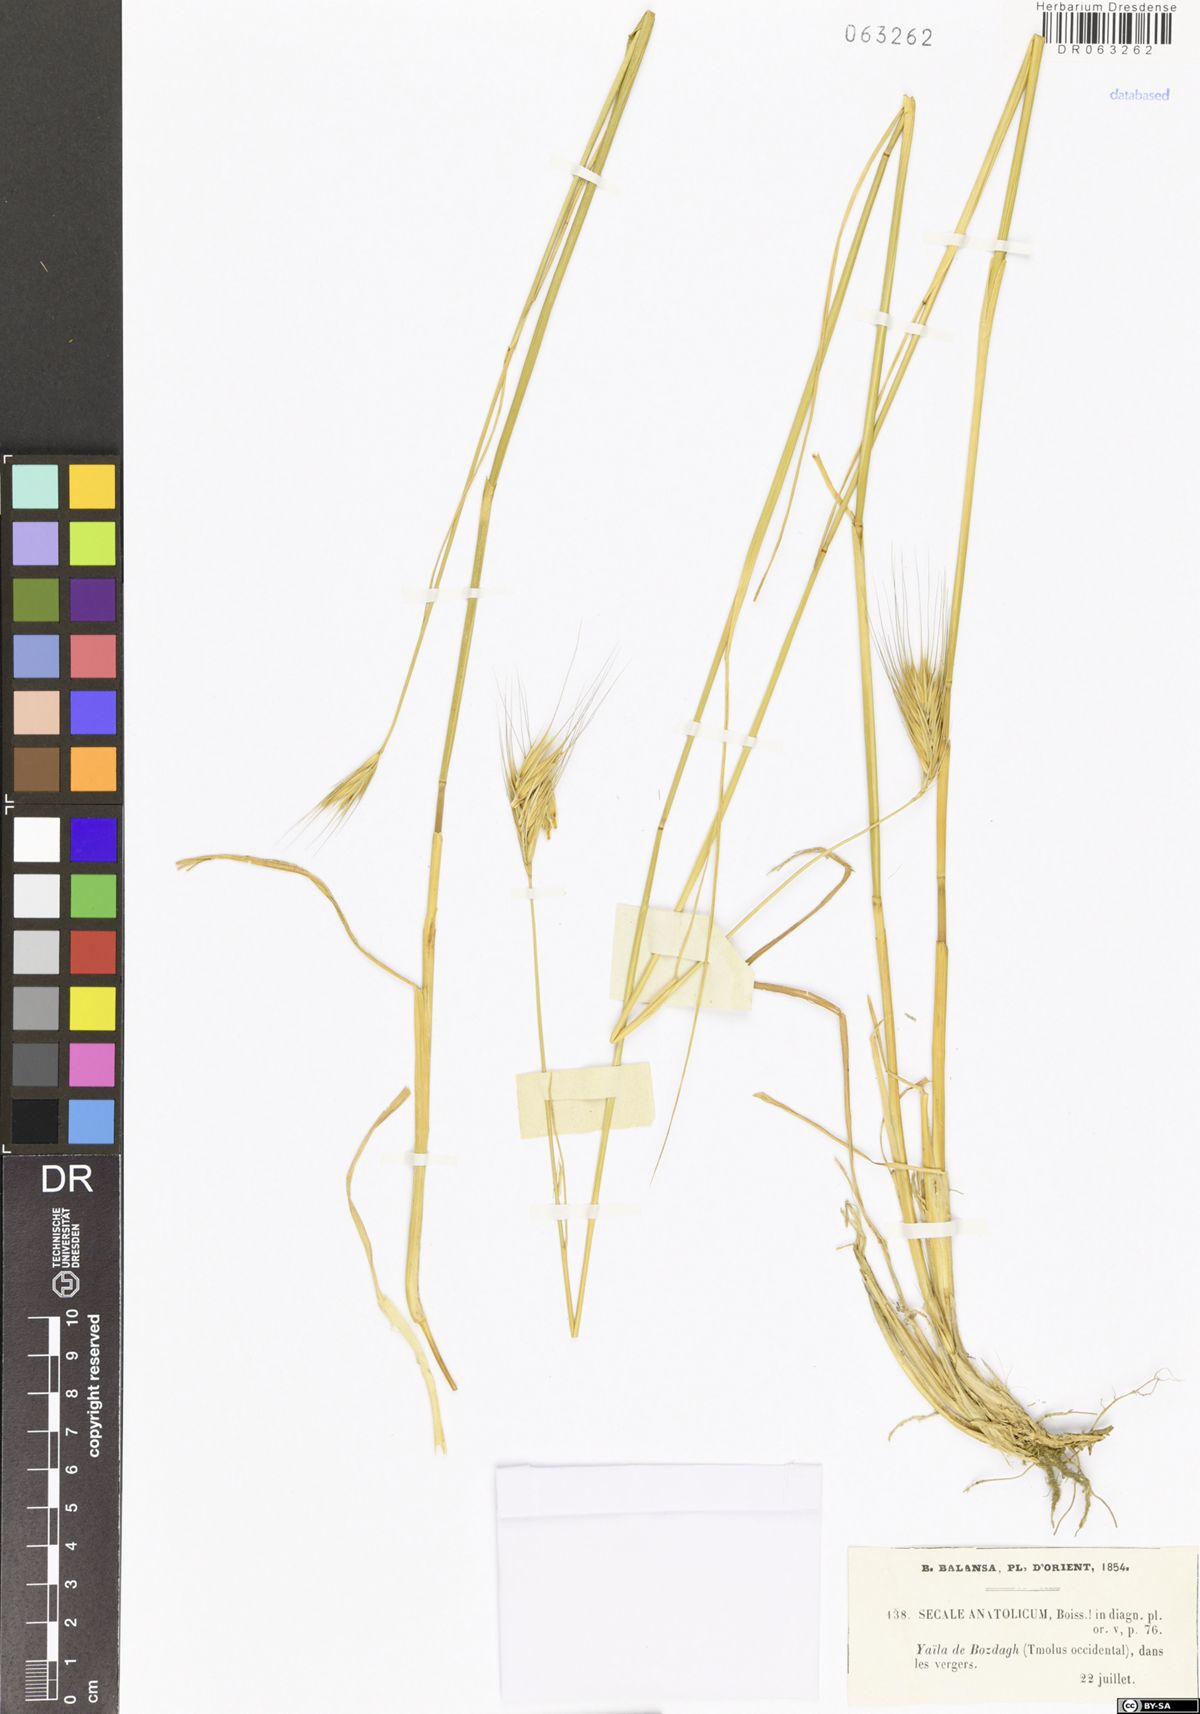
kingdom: Plantae
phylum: Tracheophyta
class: Liliopsida
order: Poales
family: Poaceae
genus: Secale
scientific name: Secale anatolicum
